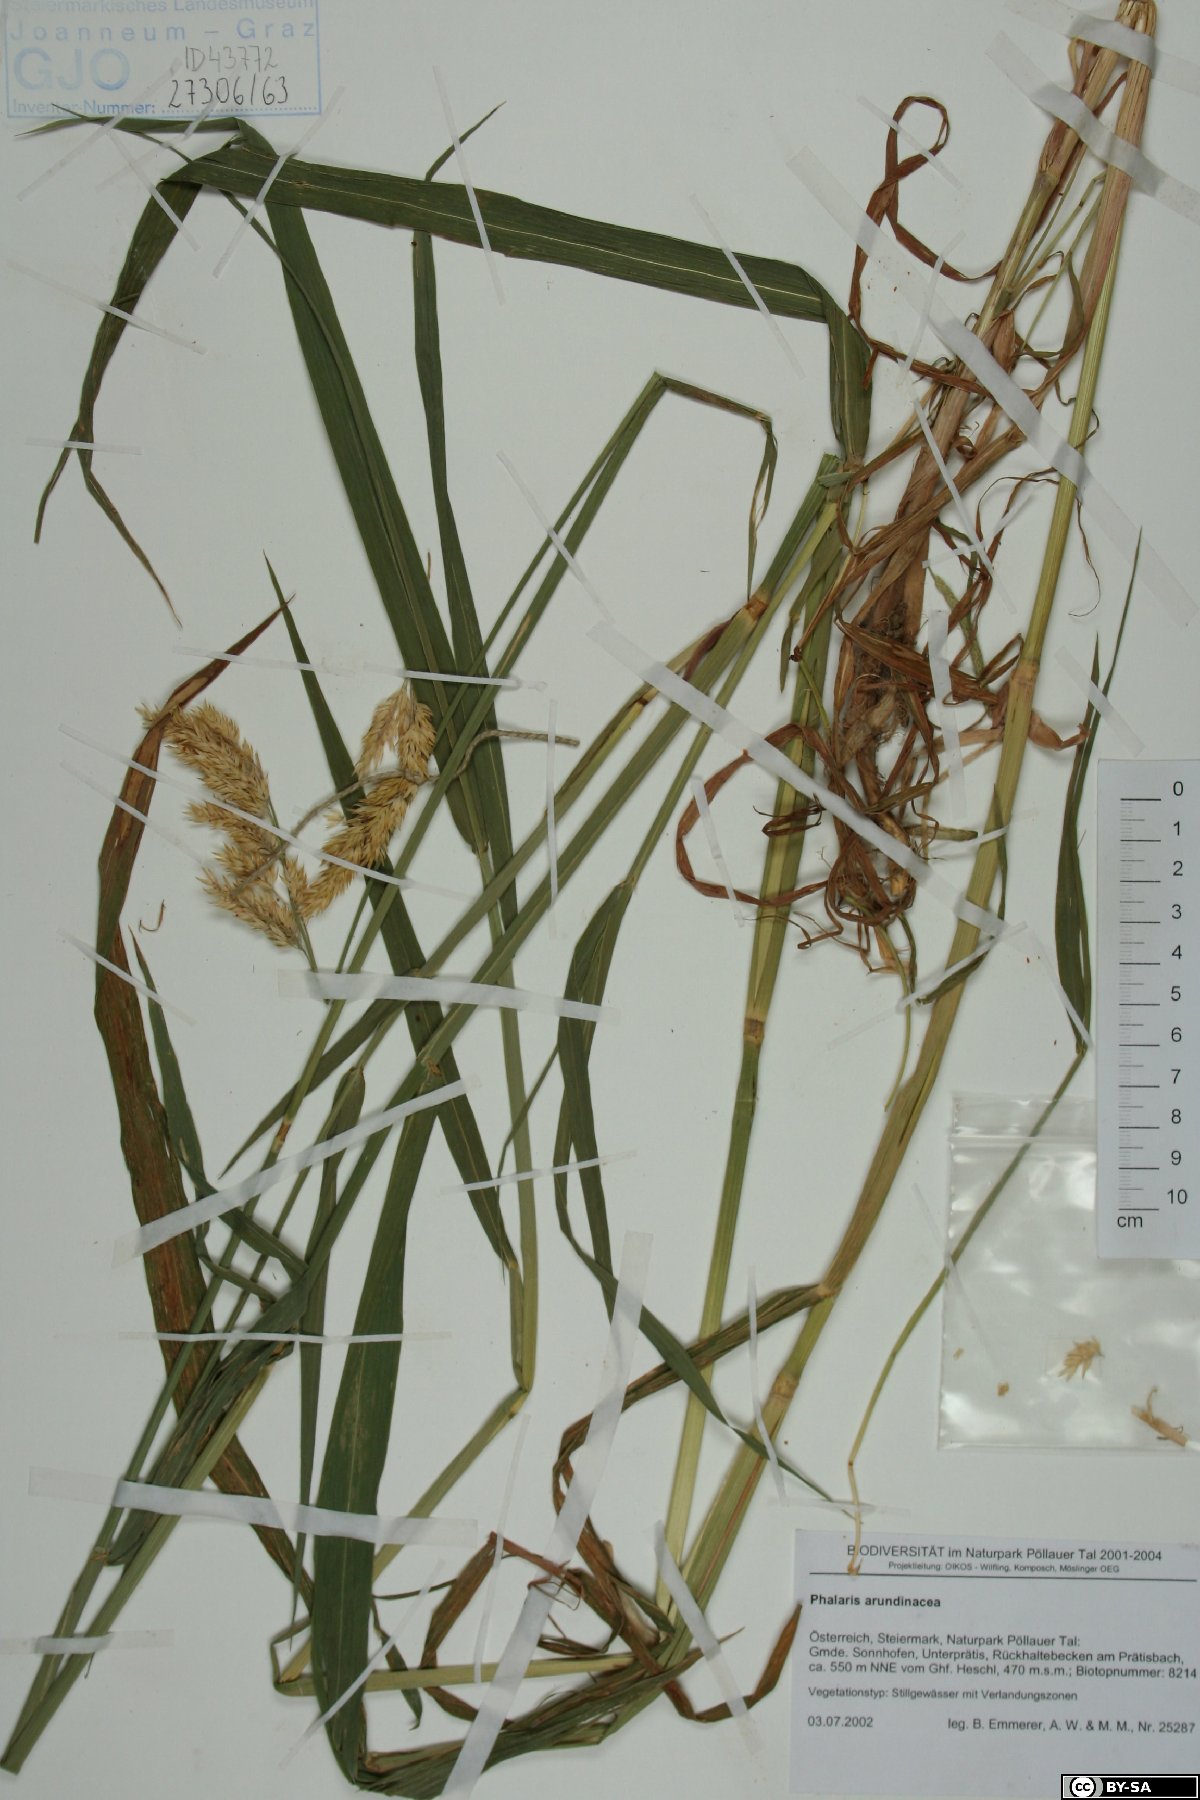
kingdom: Plantae
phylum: Tracheophyta
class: Liliopsida
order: Poales
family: Poaceae
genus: Phalaris
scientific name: Phalaris arundinacea
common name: Reed canary-grass
